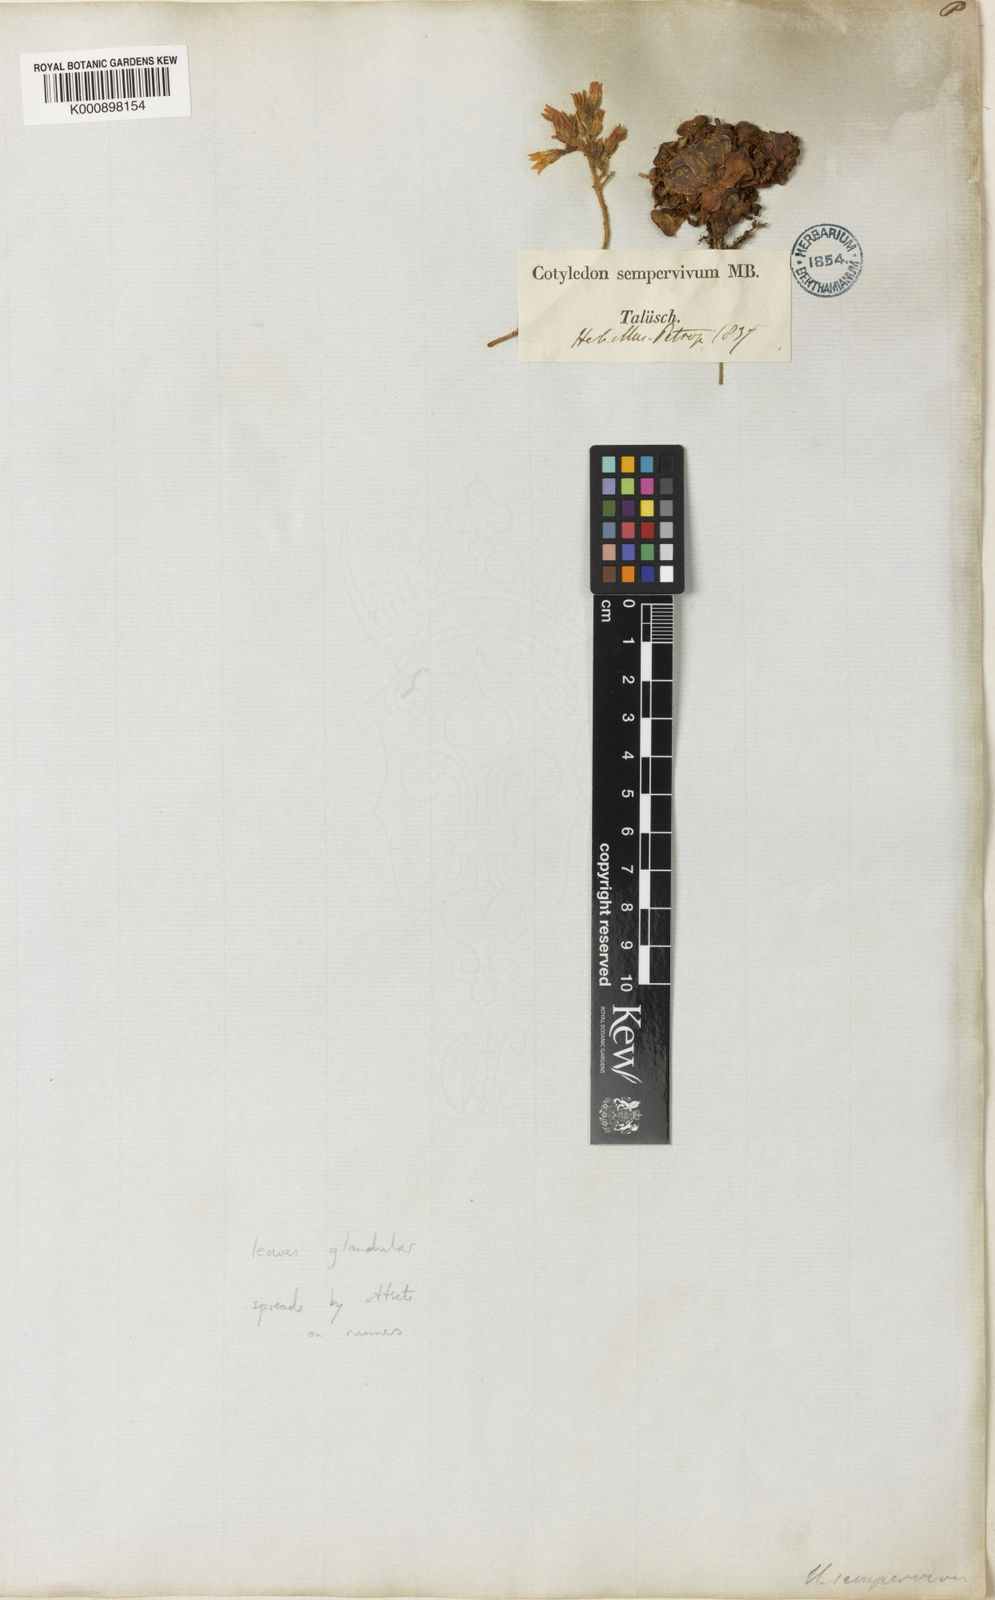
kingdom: Plantae
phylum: Tracheophyta
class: Magnoliopsida
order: Saxifragales
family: Crassulaceae
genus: Rosularia
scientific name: Rosularia sempervivum
